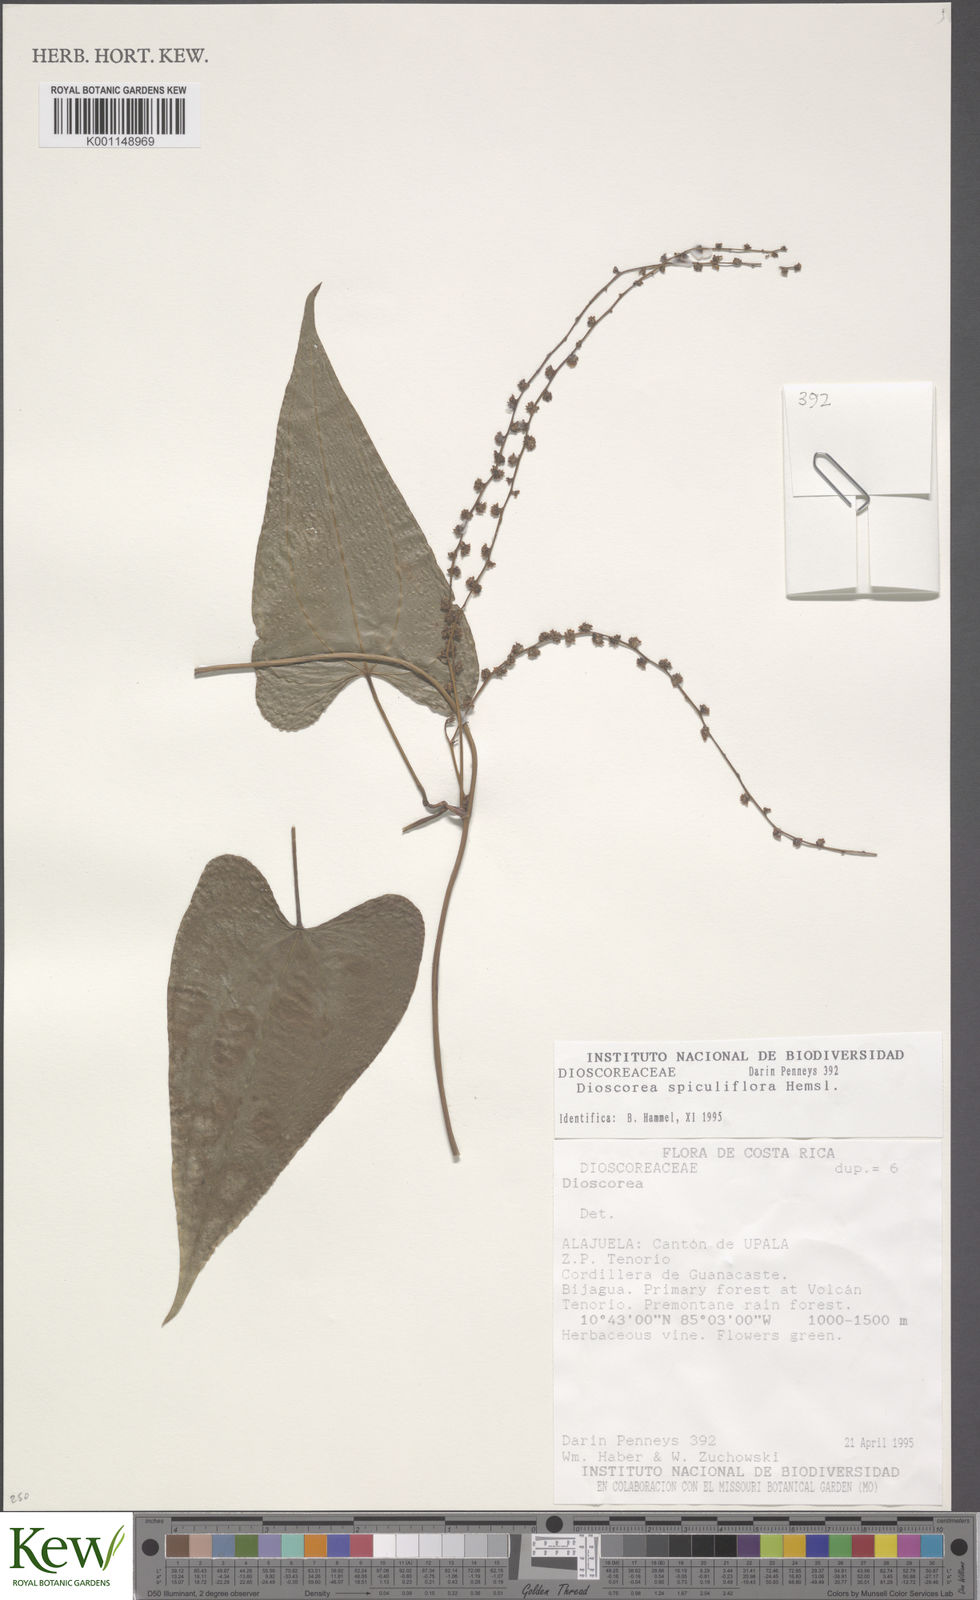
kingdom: Plantae
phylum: Tracheophyta
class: Liliopsida
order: Dioscoreales
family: Dioscoreaceae
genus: Dioscorea
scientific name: Dioscorea spiculiflora
